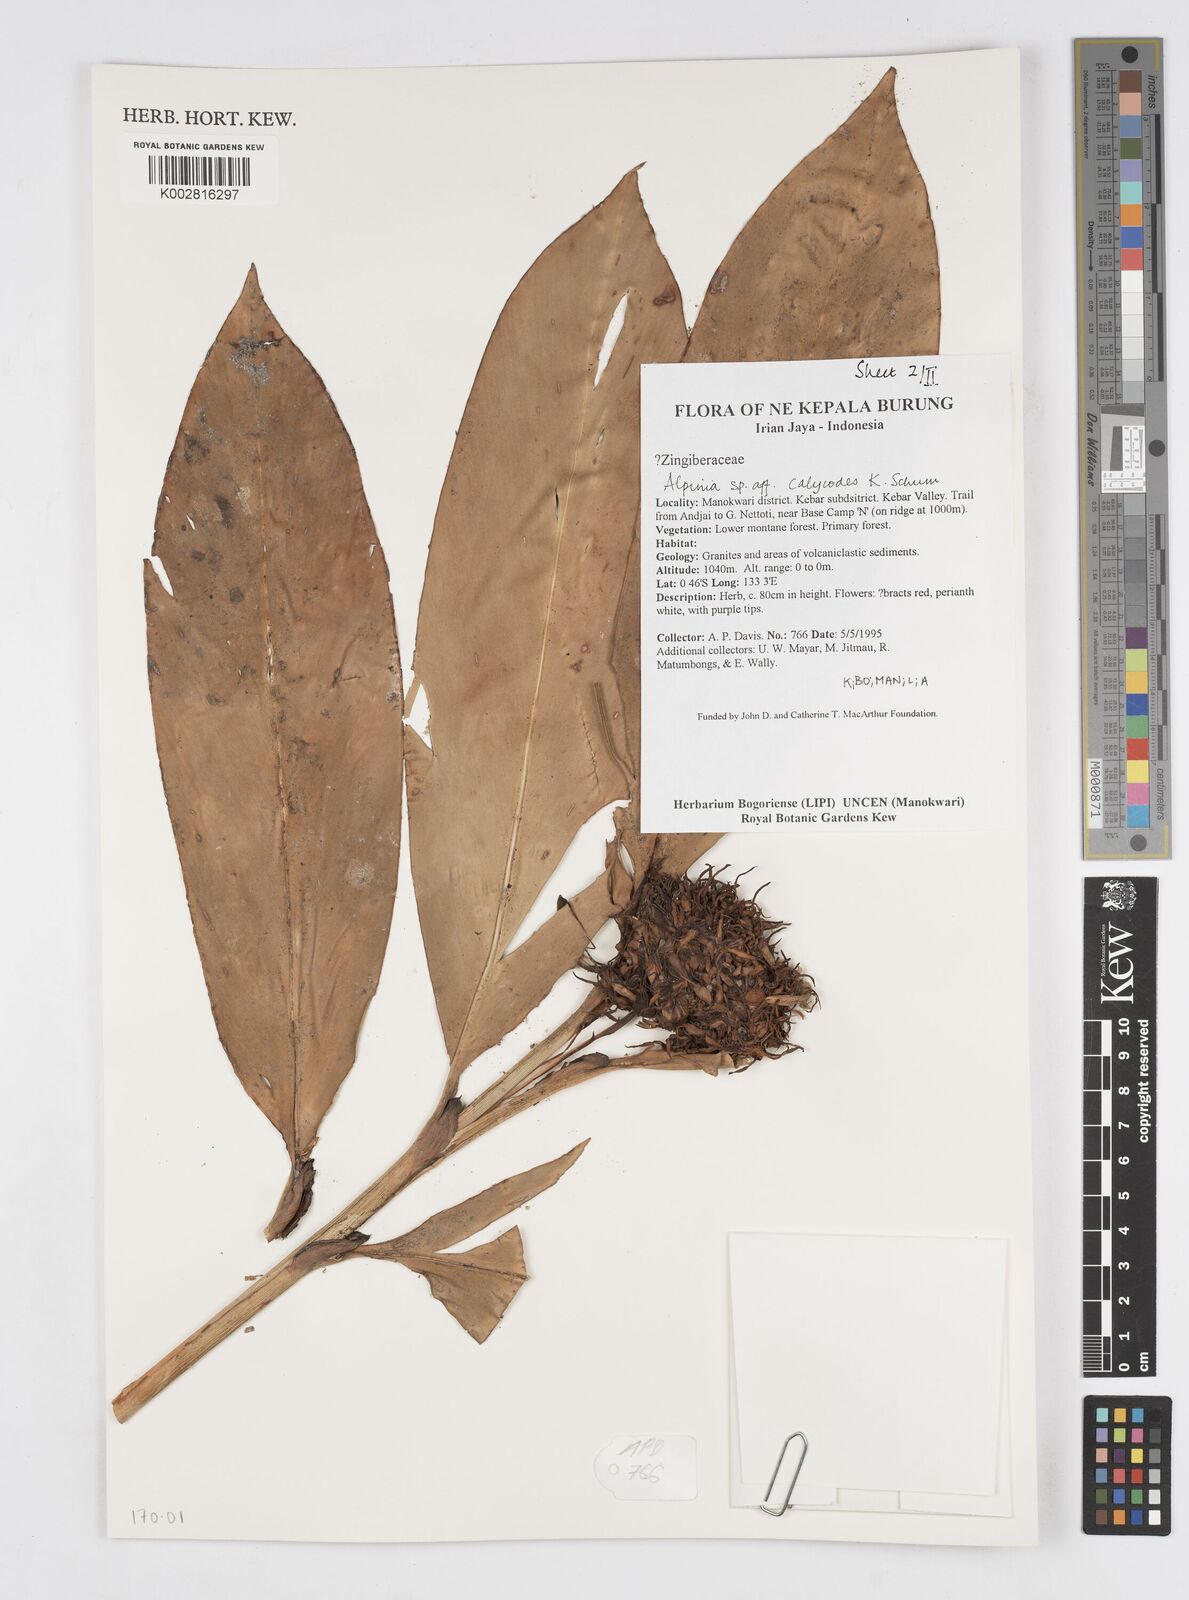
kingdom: Plantae
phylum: Tracheophyta
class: Liliopsida
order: Zingiberales
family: Zingiberaceae
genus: Alpinia
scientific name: Alpinia calycodes
